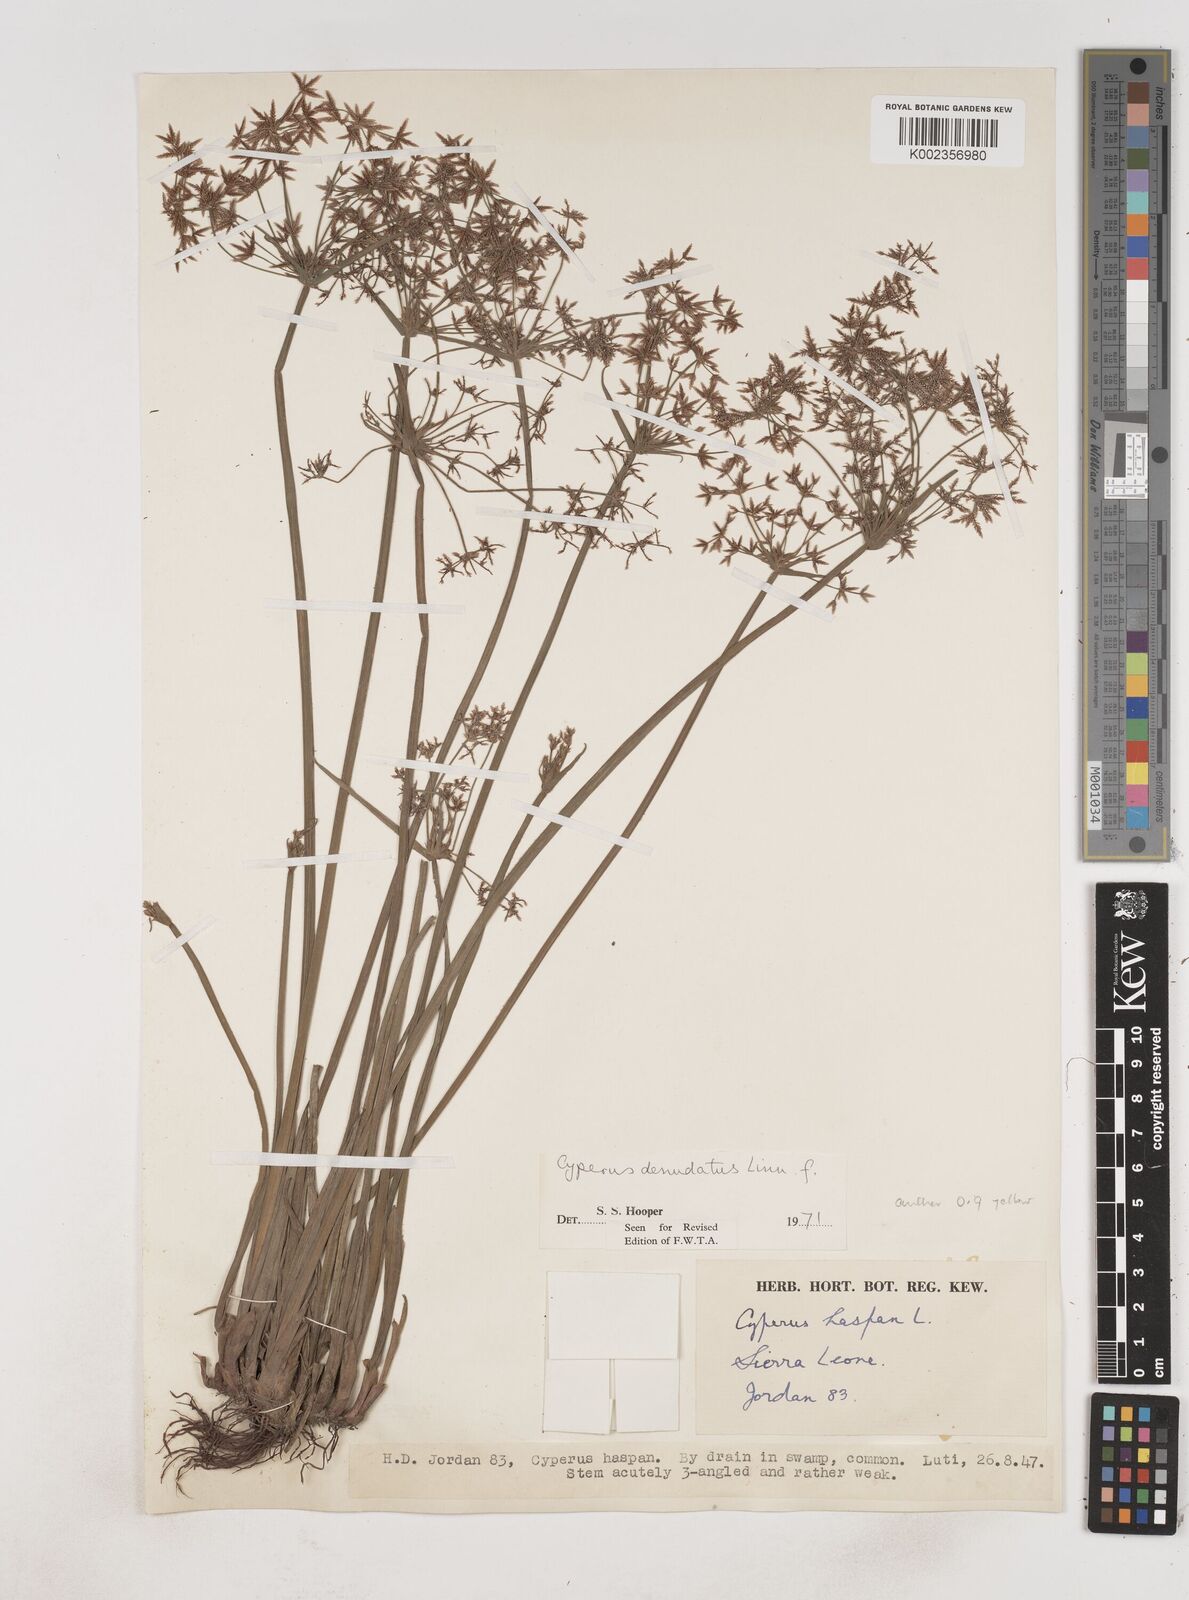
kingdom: Plantae
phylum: Tracheophyta
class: Liliopsida
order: Poales
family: Cyperaceae
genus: Cyperus
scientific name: Cyperus denudatus
